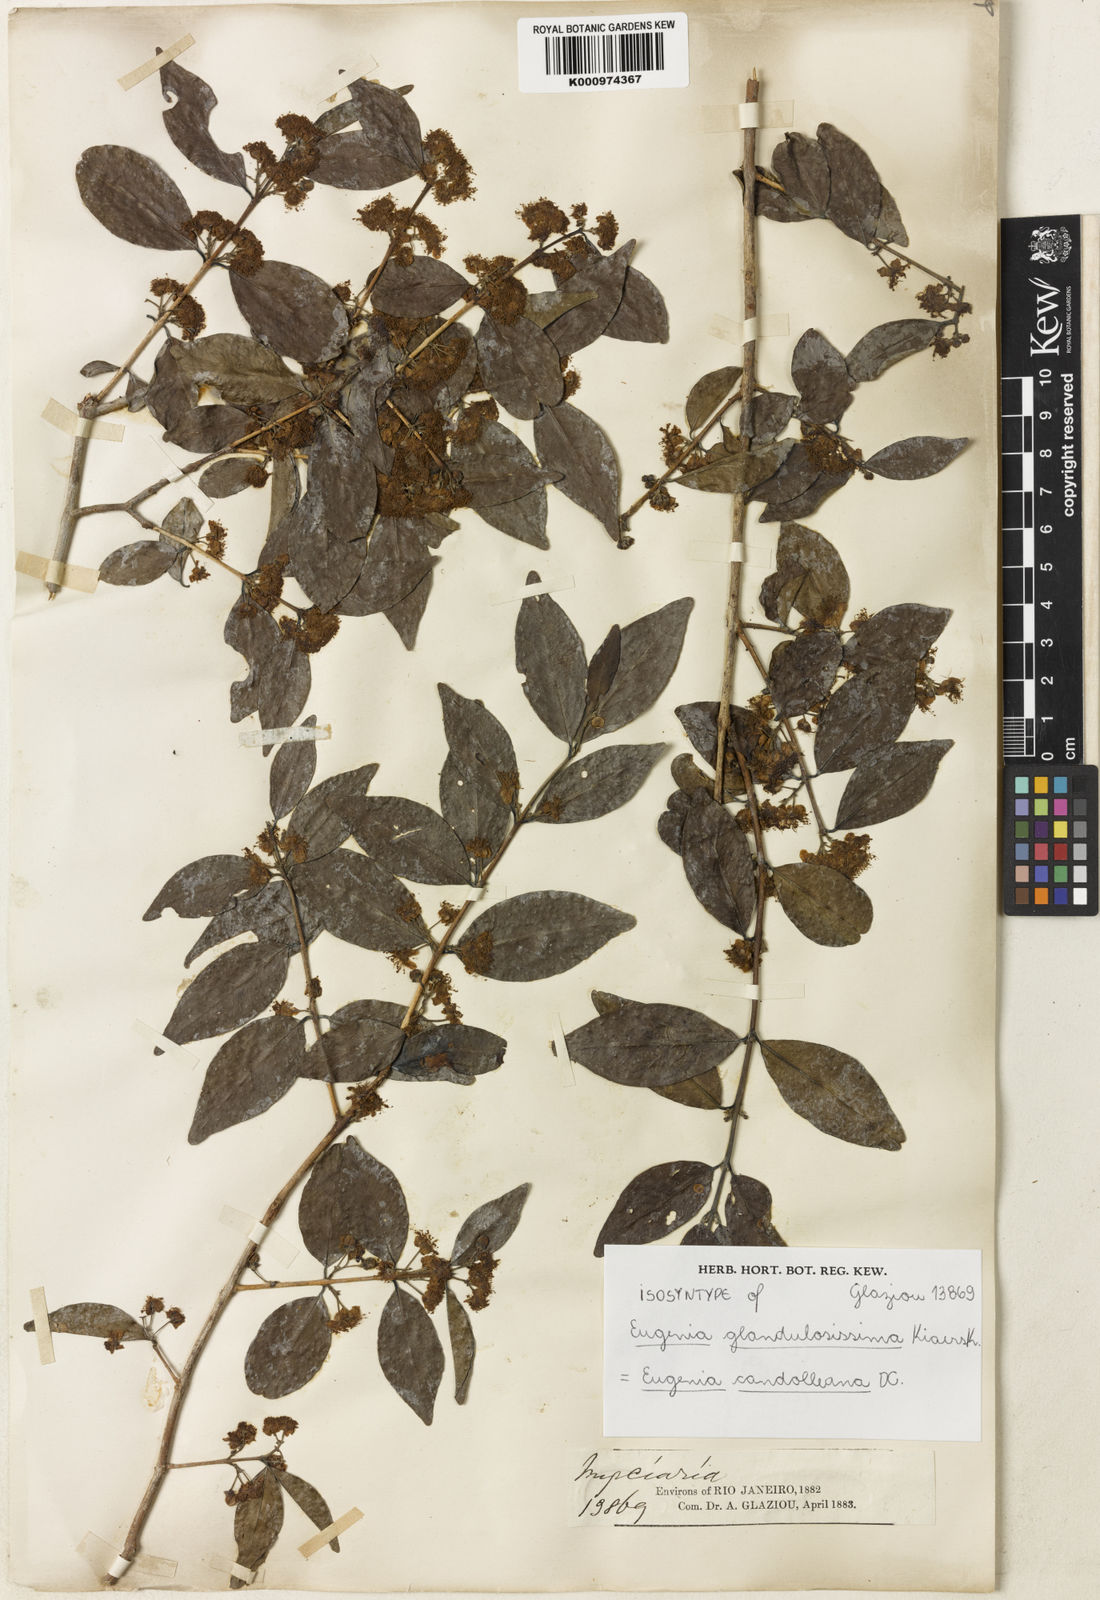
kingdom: Plantae
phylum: Tracheophyta
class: Magnoliopsida
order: Myrtales
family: Myrtaceae
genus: Eugenia
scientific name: Eugenia candolleana
